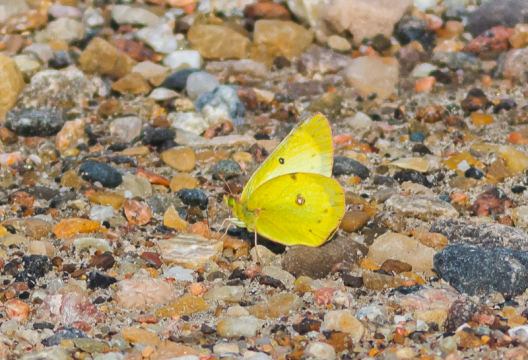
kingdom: Animalia
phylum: Arthropoda
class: Insecta
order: Lepidoptera
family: Pieridae
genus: Colias
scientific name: Colias philodice
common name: Clouded Sulphur
